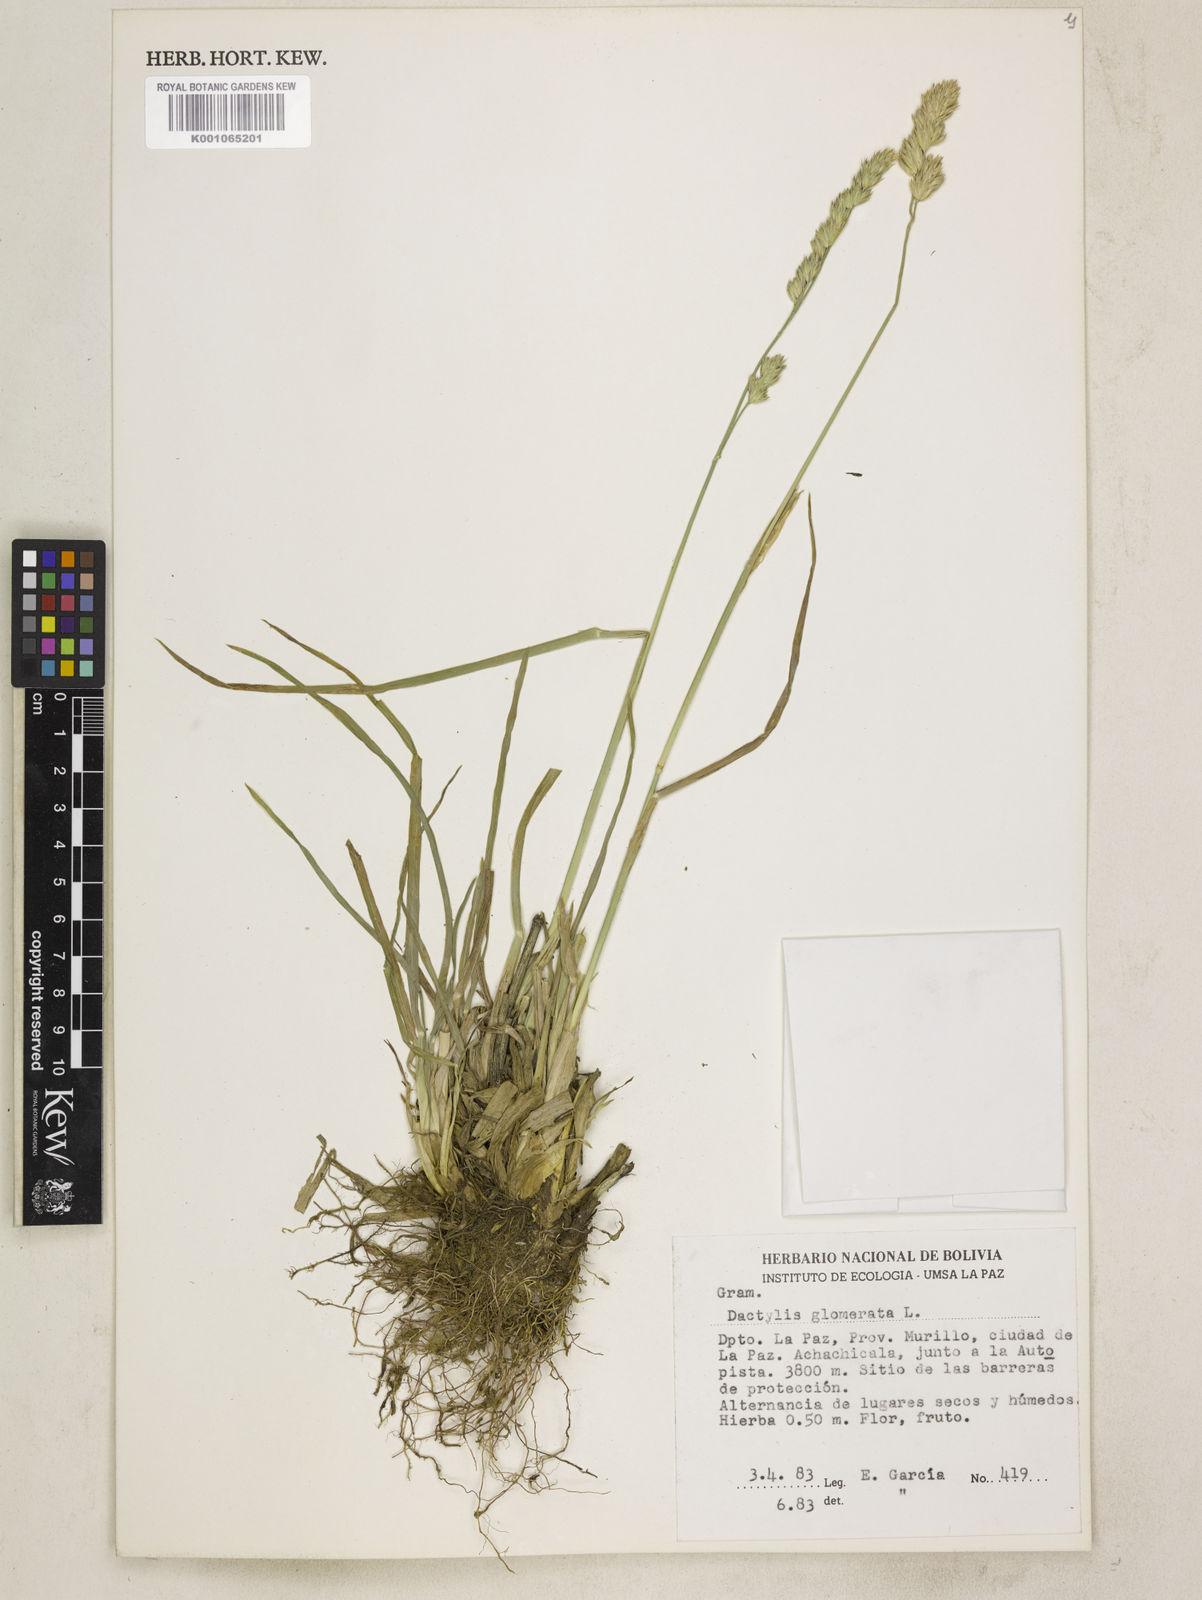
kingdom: Plantae
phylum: Tracheophyta
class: Liliopsida
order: Poales
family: Poaceae
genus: Dactylis
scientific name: Dactylis glomerata
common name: Orchardgrass
